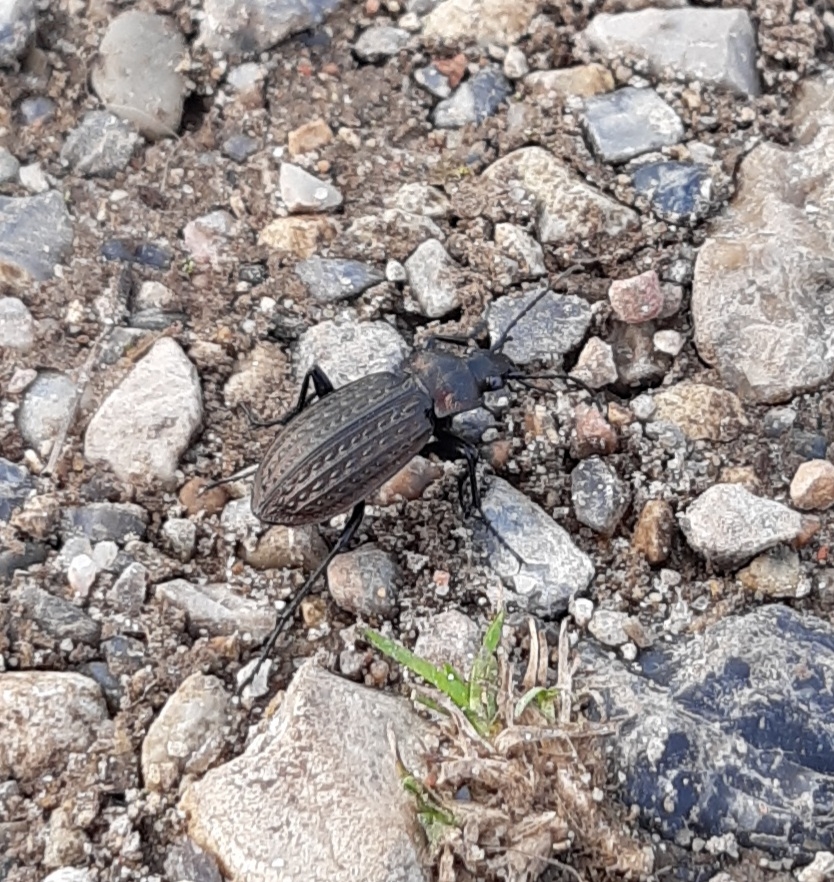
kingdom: Animalia
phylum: Arthropoda
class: Insecta
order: Coleoptera
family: Carabidae
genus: Carabus
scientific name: Carabus granulatus
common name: Kornet løber
